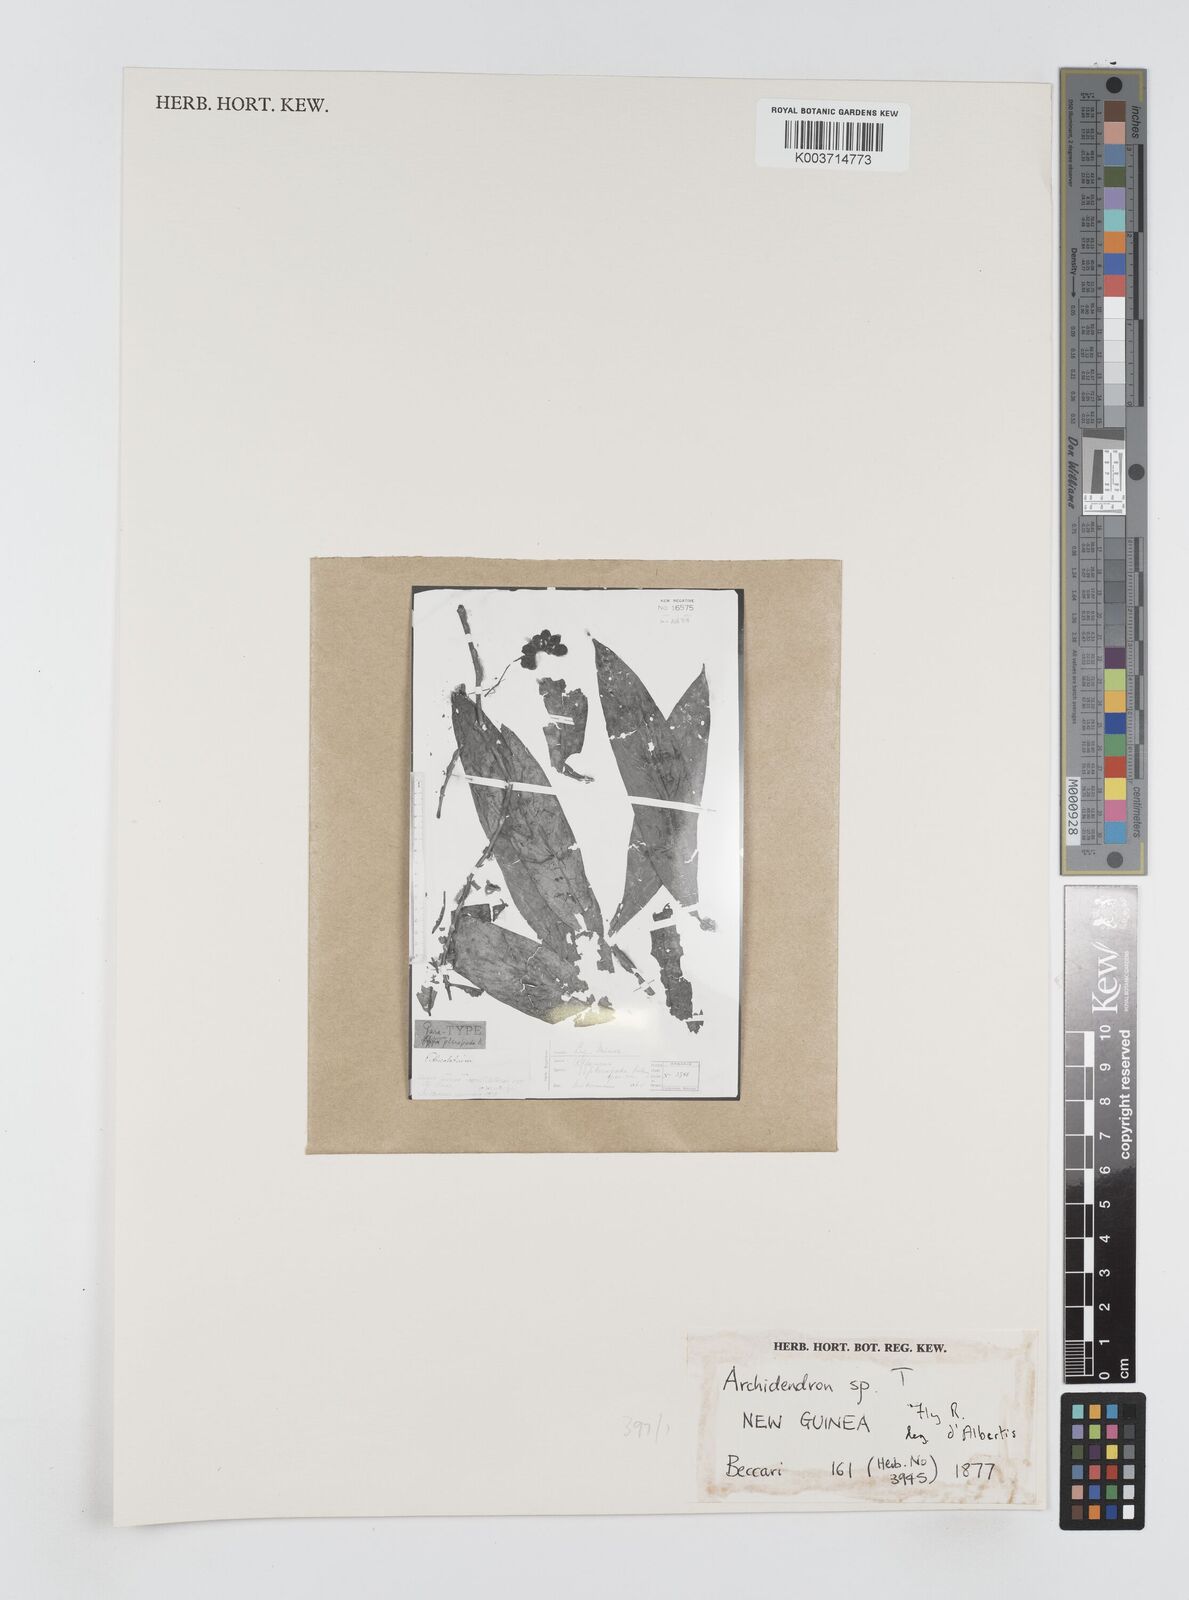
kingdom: Plantae
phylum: Tracheophyta
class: Magnoliopsida
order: Fabales
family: Fabaceae
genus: Archidendron
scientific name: Archidendron
